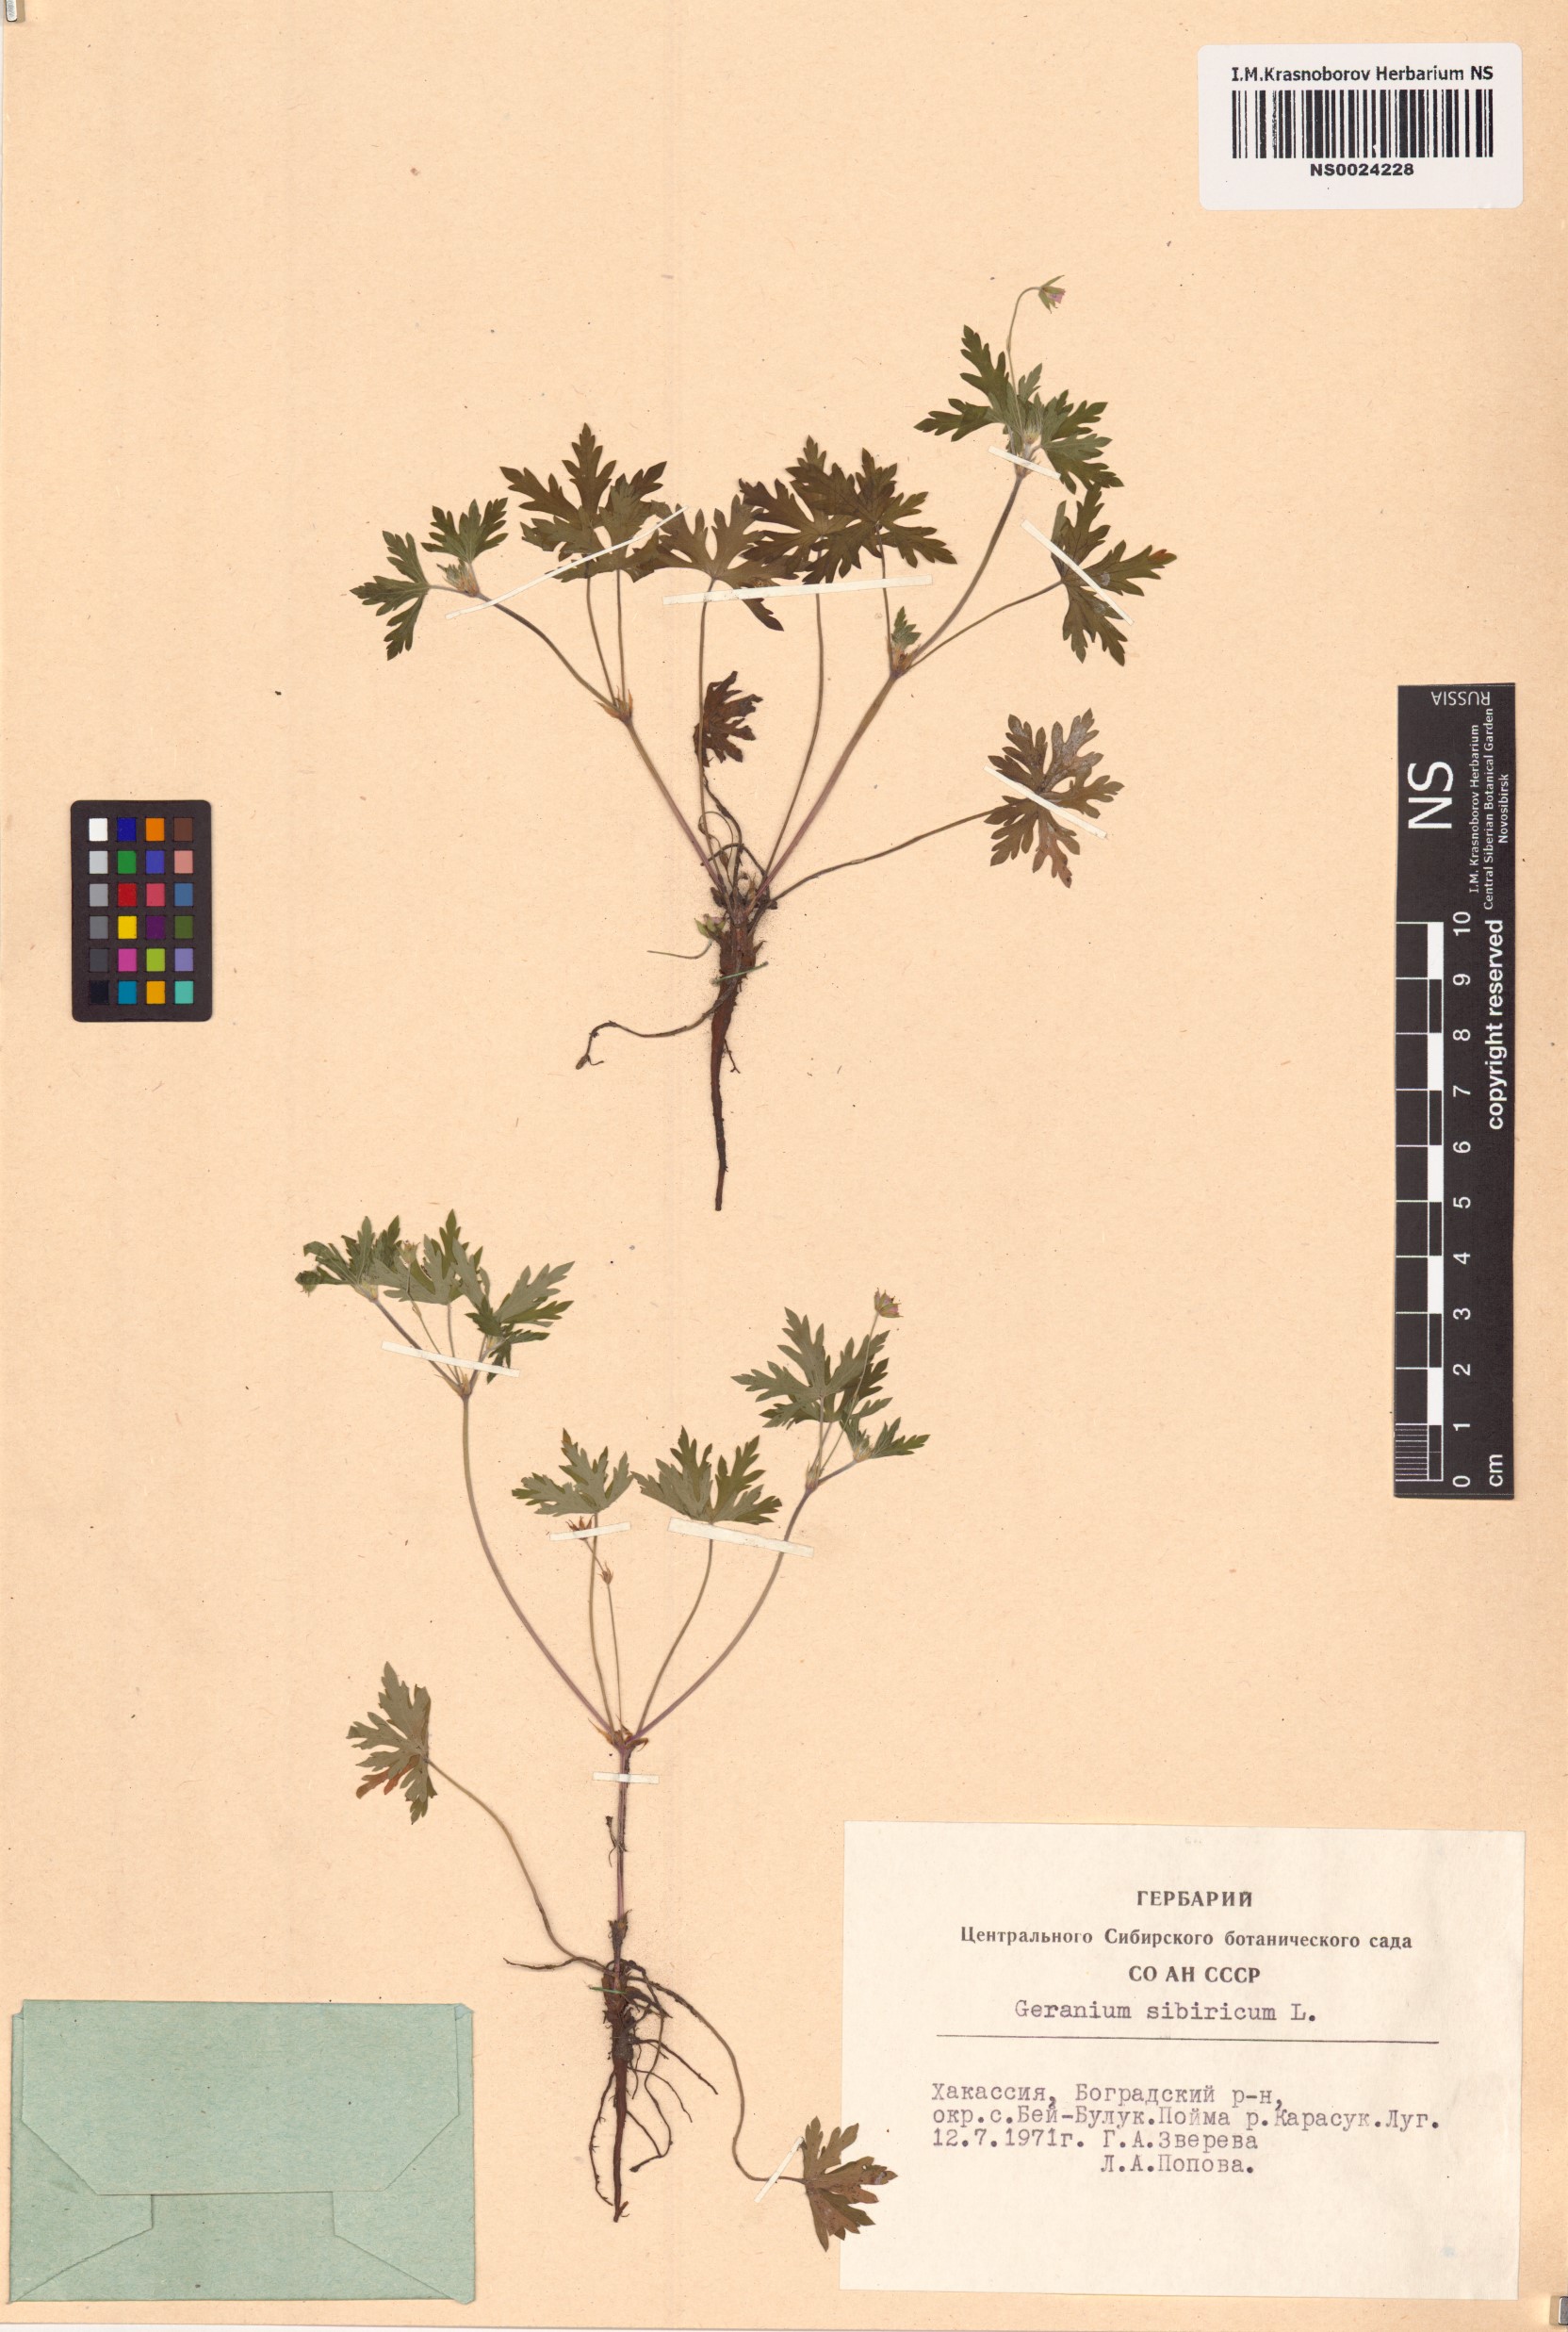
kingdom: Plantae
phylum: Tracheophyta
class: Magnoliopsida
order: Geraniales
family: Geraniaceae
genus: Geranium
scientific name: Geranium sibiricum
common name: Siberian crane's-bill
